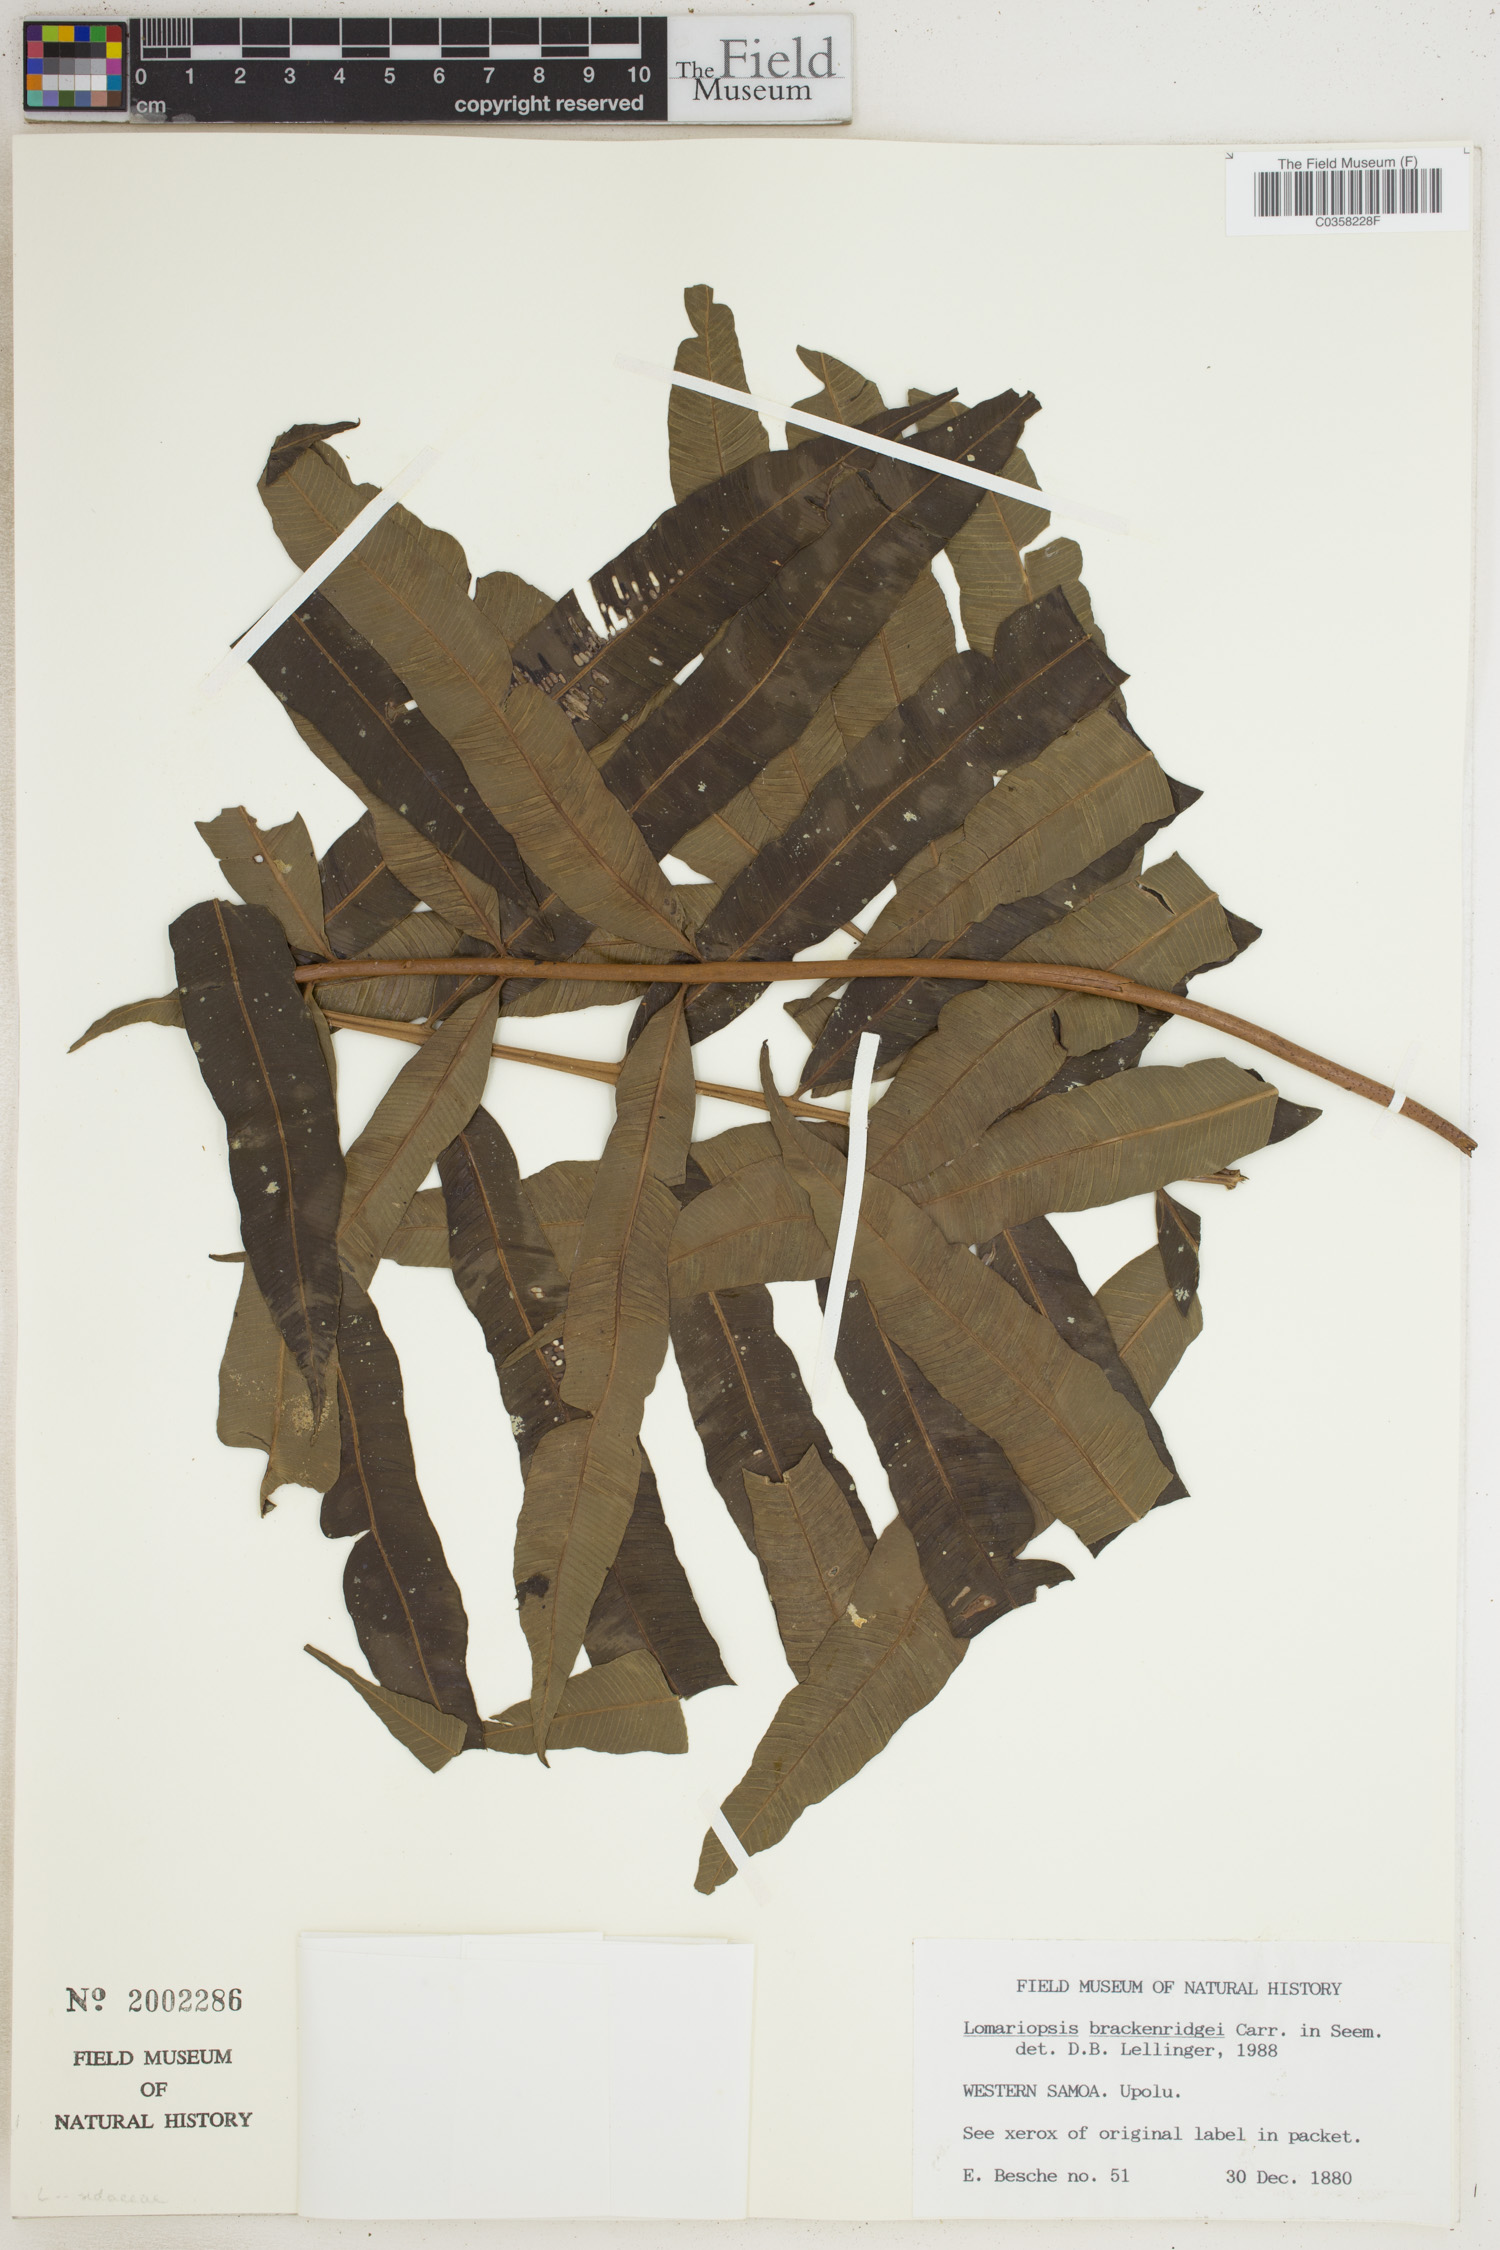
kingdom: Plantae
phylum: Tracheophyta
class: Polypodiopsida
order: Polypodiales
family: Lomariopsidaceae
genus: Lomariopsis
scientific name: Lomariopsis brackenridgei
